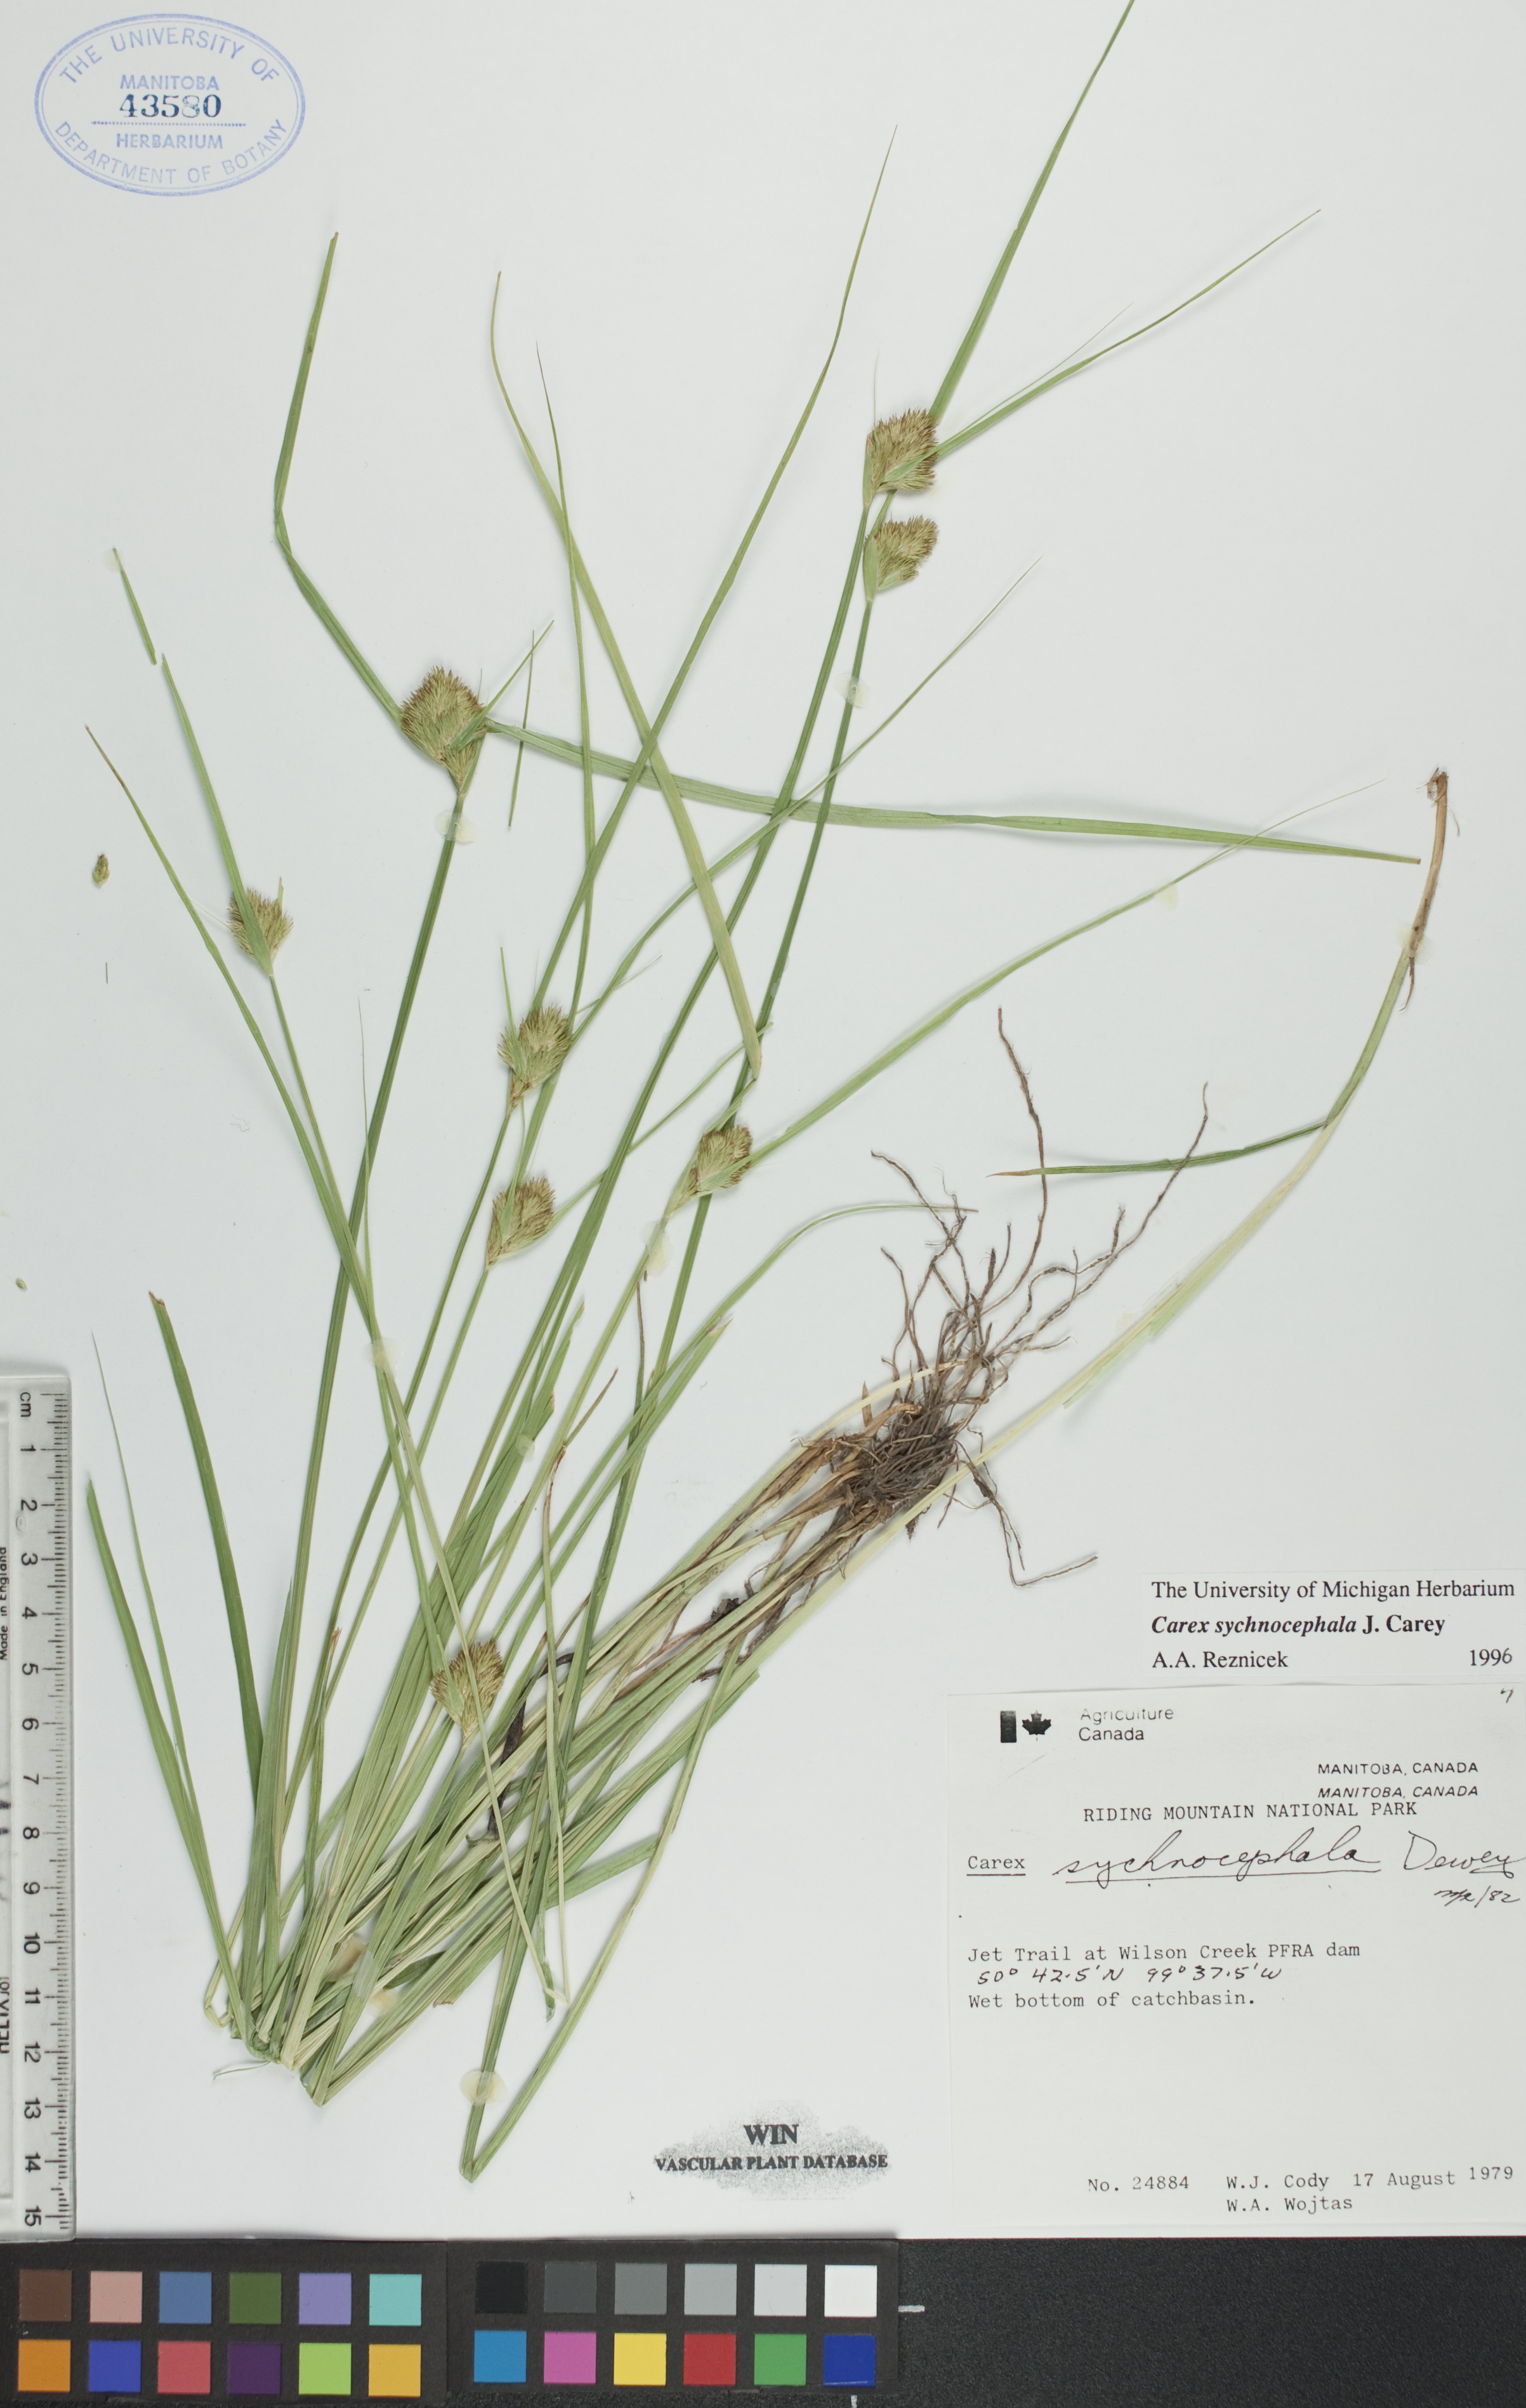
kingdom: Plantae
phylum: Tracheophyta
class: Liliopsida
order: Poales
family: Cyperaceae
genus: Carex
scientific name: Carex sychnocephala
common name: Dense long-beaked sedge
